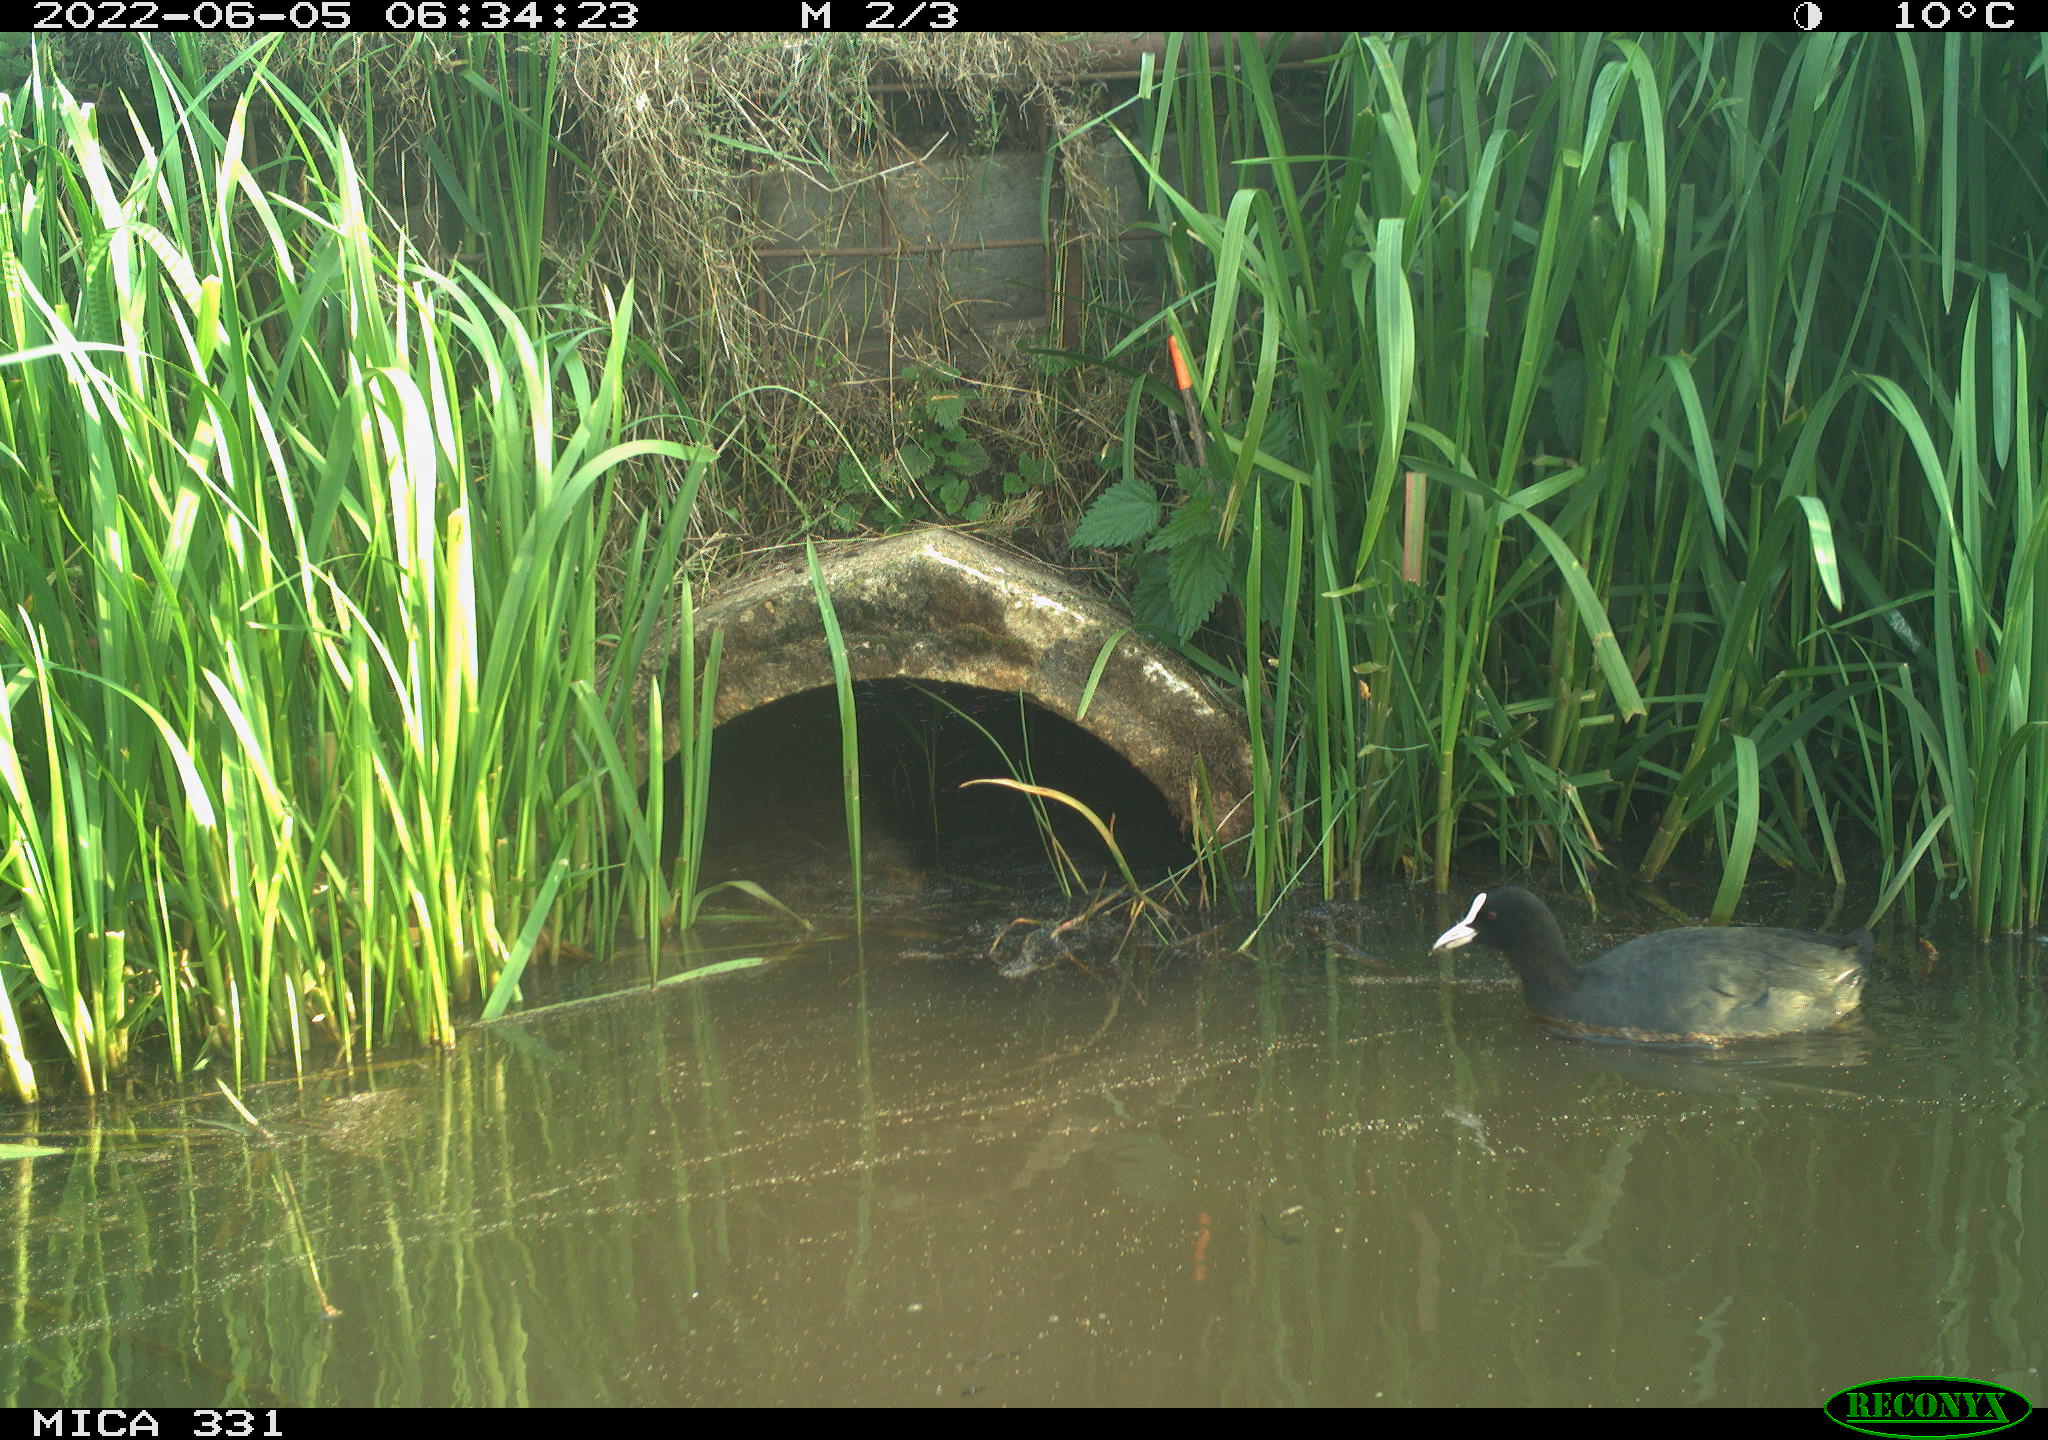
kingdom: Animalia
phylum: Chordata
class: Aves
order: Gruiformes
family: Rallidae
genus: Fulica
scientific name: Fulica atra
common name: Eurasian coot
